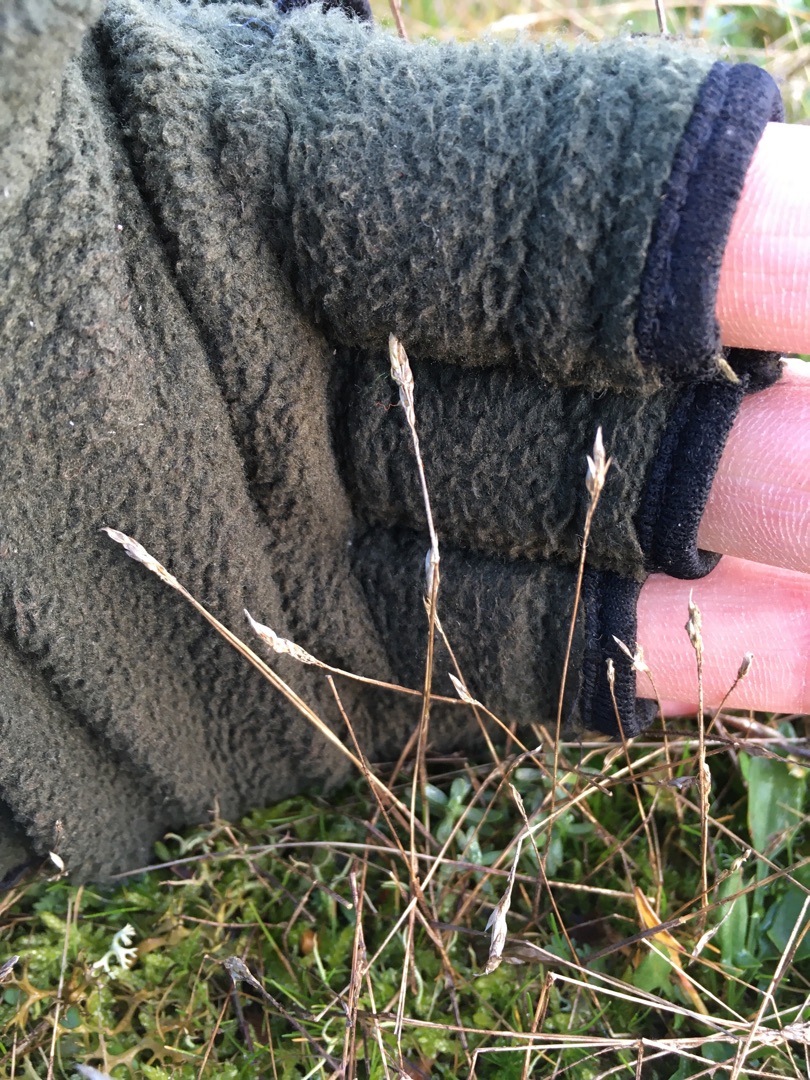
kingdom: Plantae
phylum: Tracheophyta
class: Liliopsida
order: Poales
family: Poaceae
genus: Aira
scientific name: Aira praecox
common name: Tidlig dværgbunke
